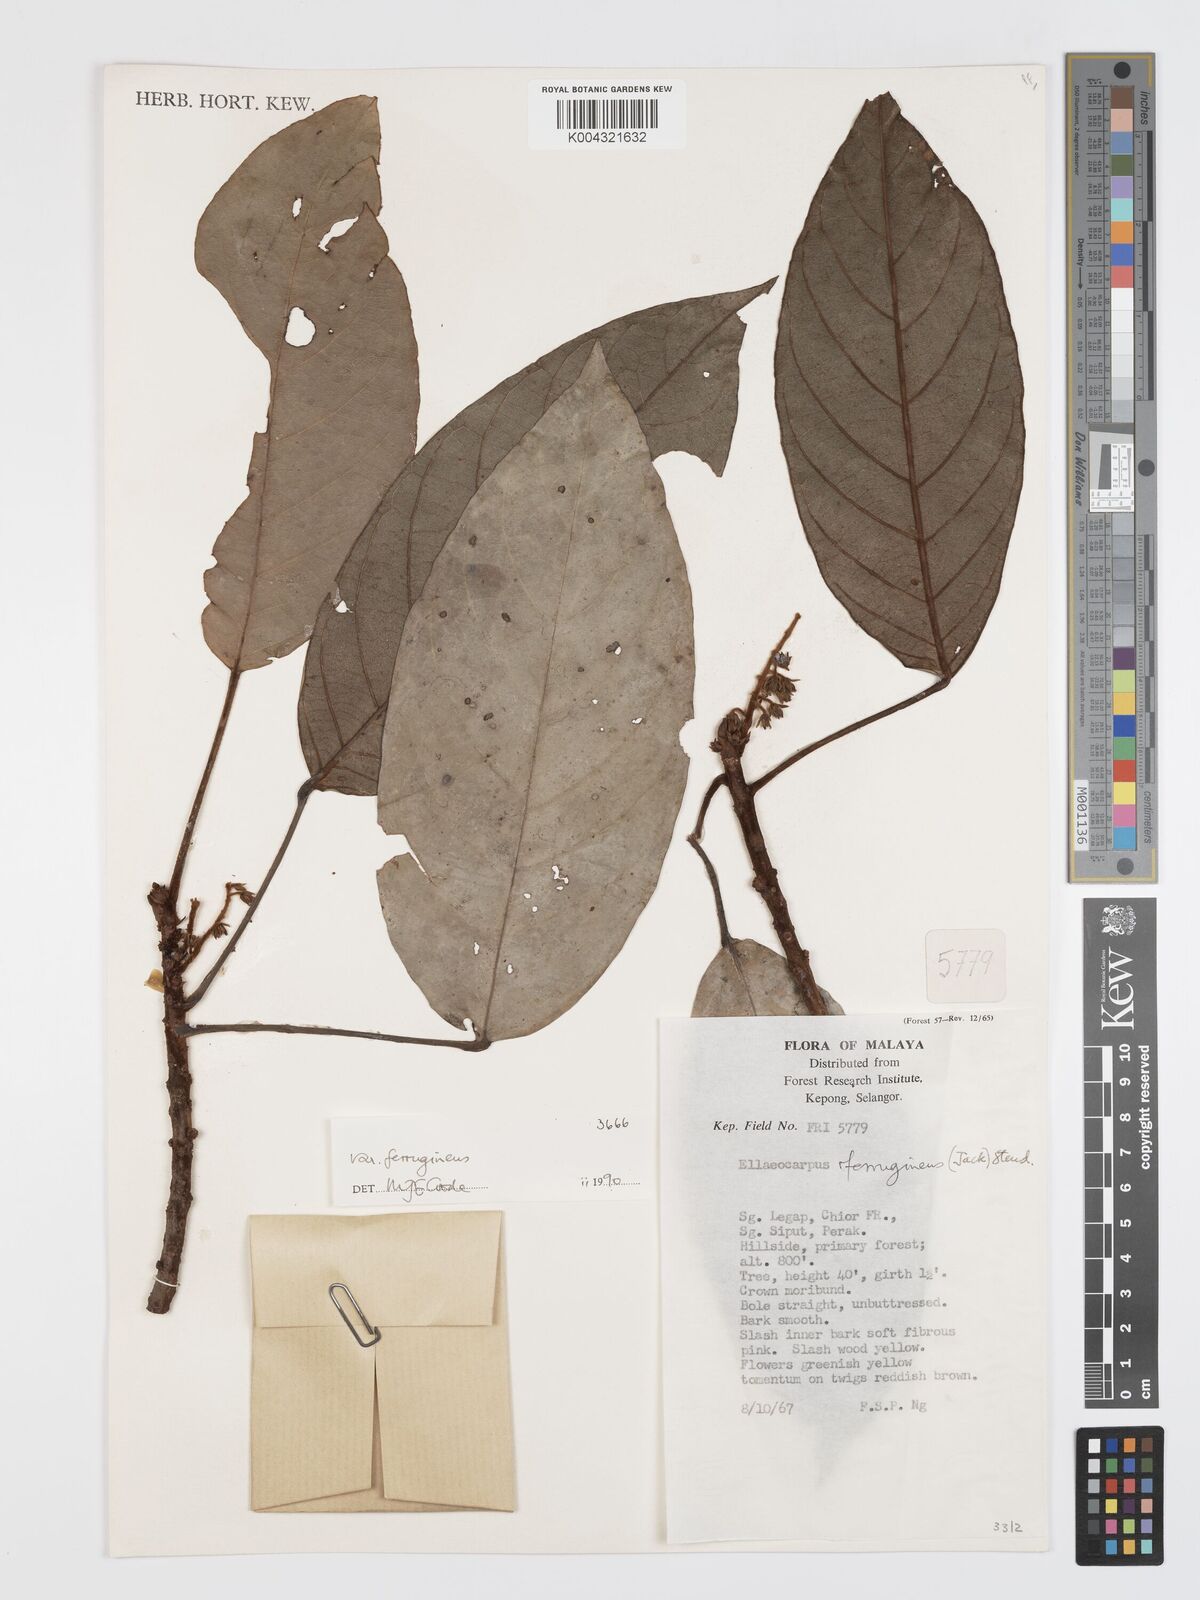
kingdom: Plantae
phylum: Tracheophyta
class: Magnoliopsida
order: Oxalidales
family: Elaeocarpaceae
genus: Elaeocarpus
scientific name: Elaeocarpus ferrugineus
